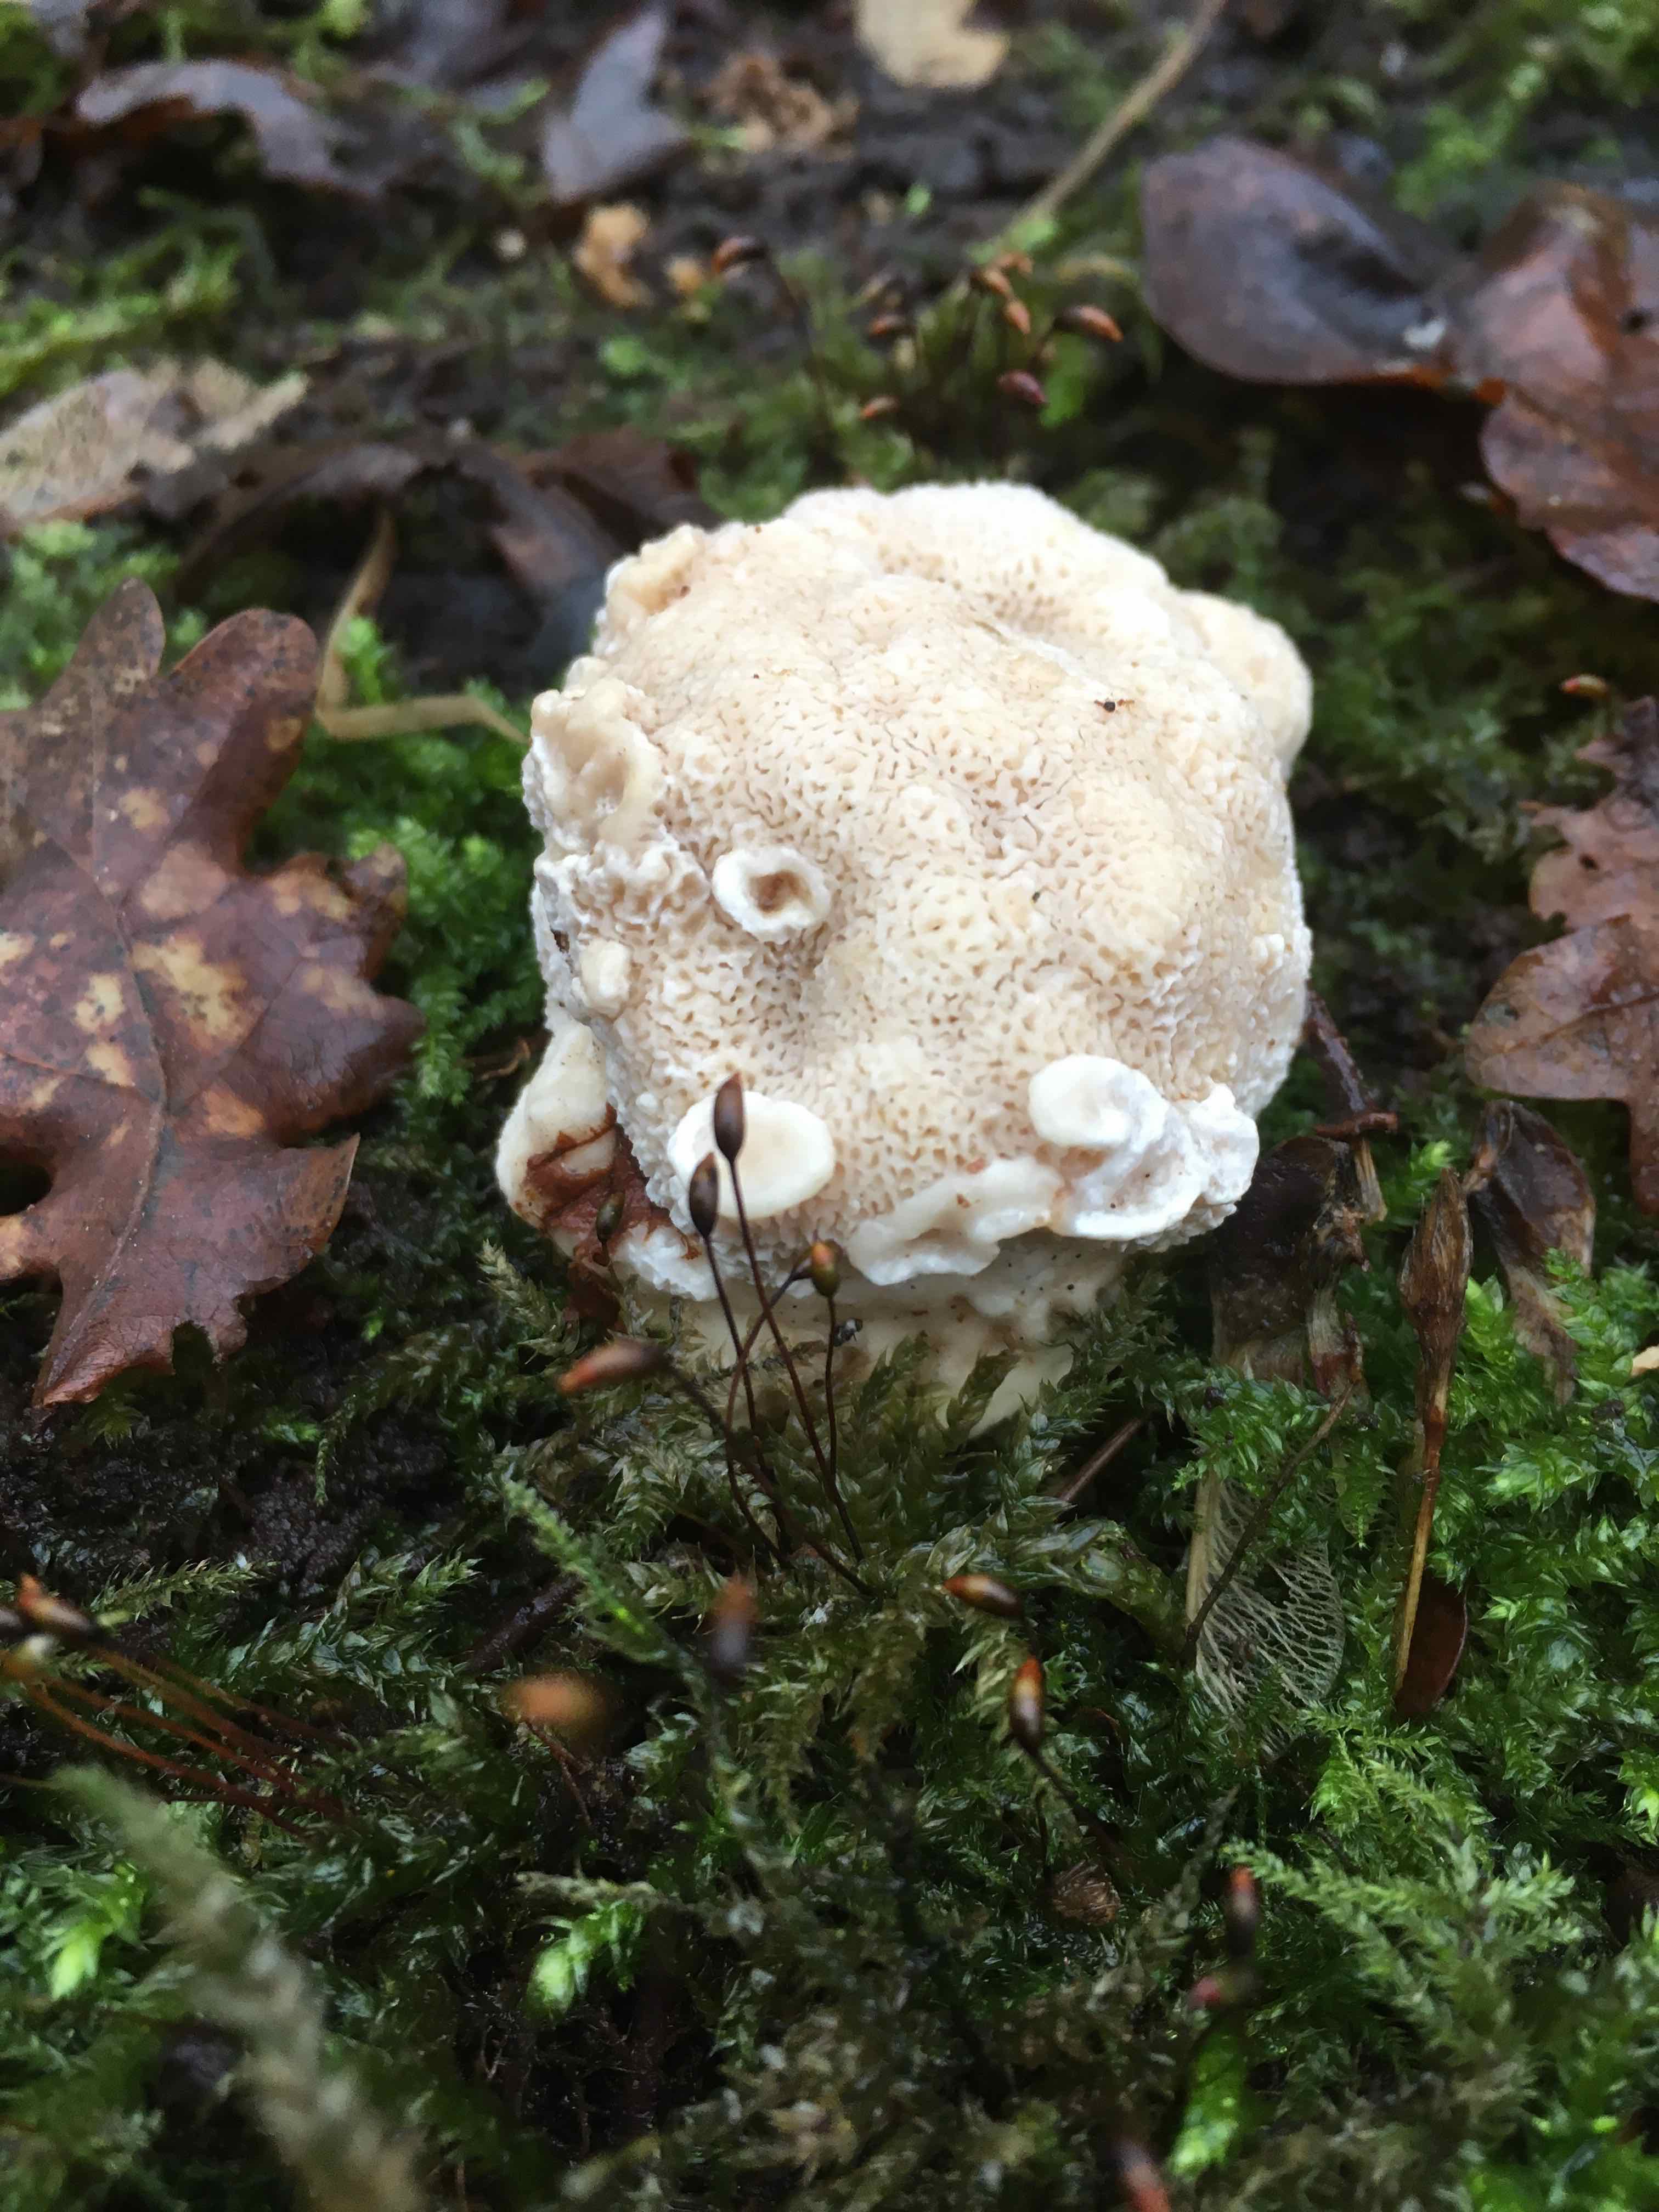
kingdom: Fungi
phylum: Basidiomycota
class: Agaricomycetes
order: Russulales
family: Bondarzewiaceae
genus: Heterobasidion
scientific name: Heterobasidion
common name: rodfordærver
